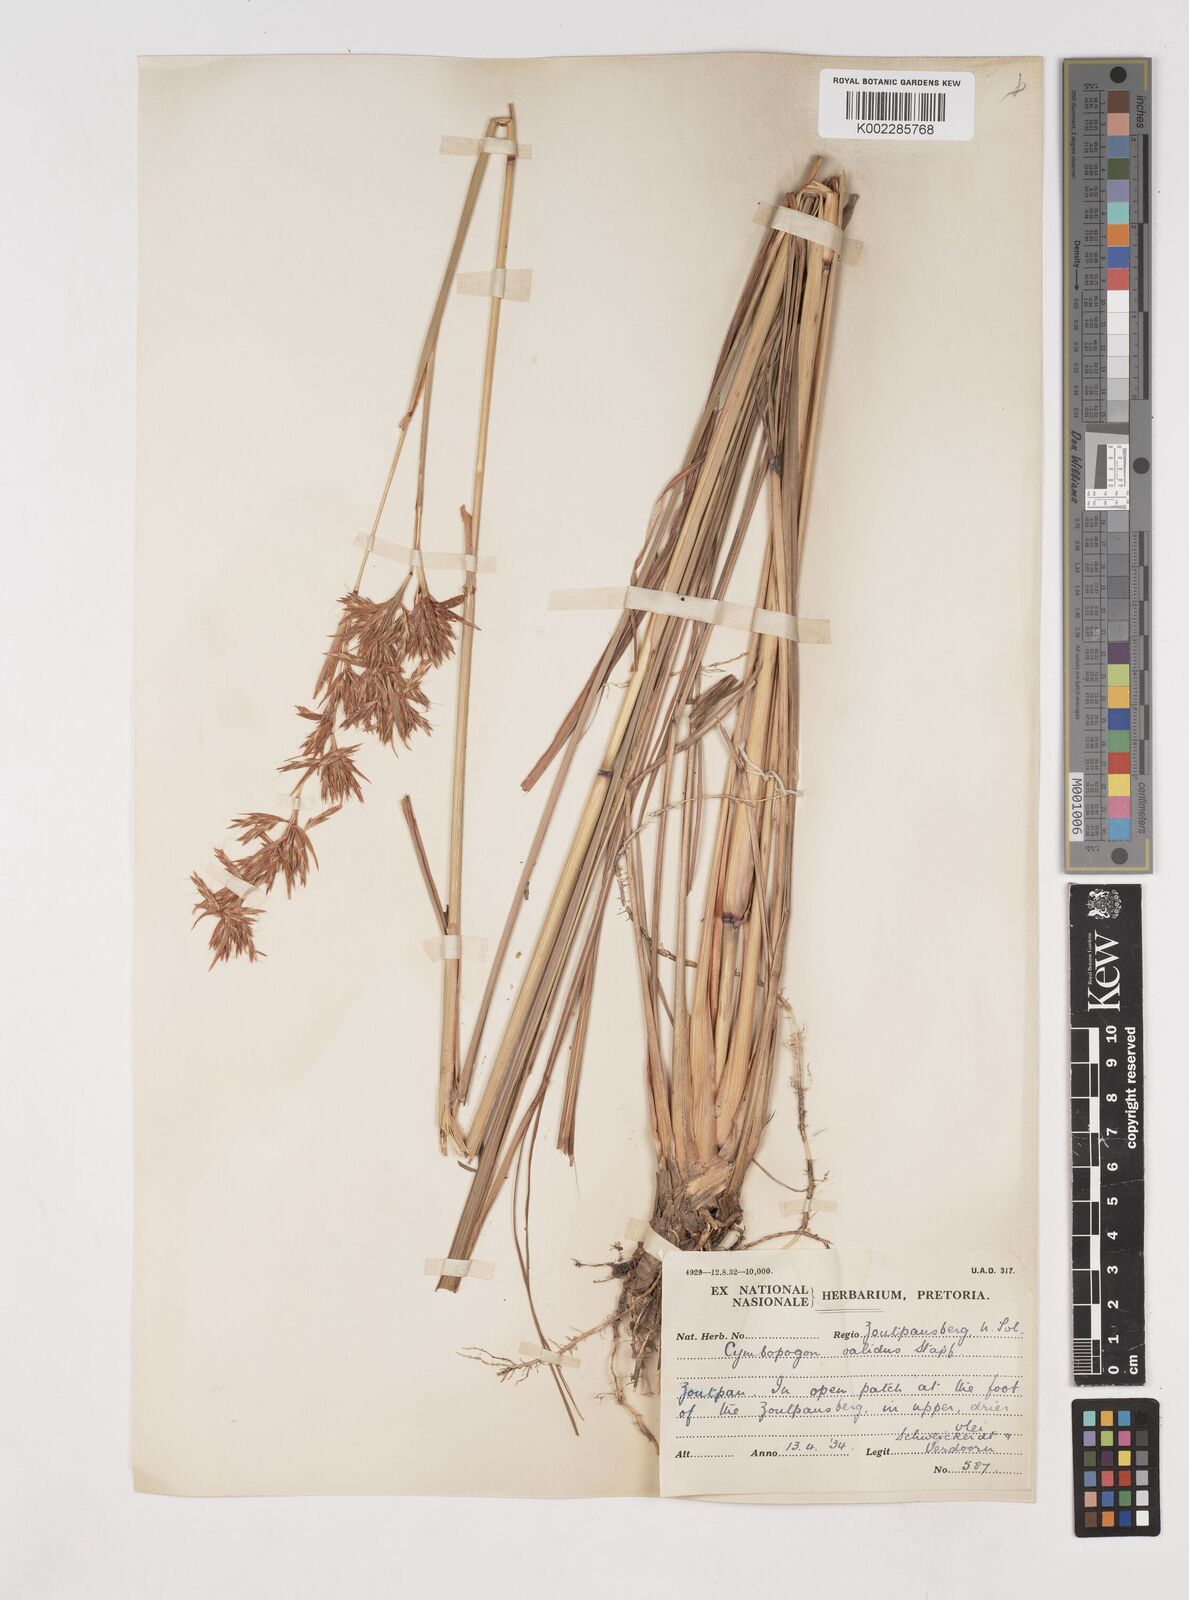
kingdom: Plantae
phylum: Tracheophyta
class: Liliopsida
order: Poales
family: Poaceae
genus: Cymbopogon
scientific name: Cymbopogon nardus
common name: Giant turpentine grass
